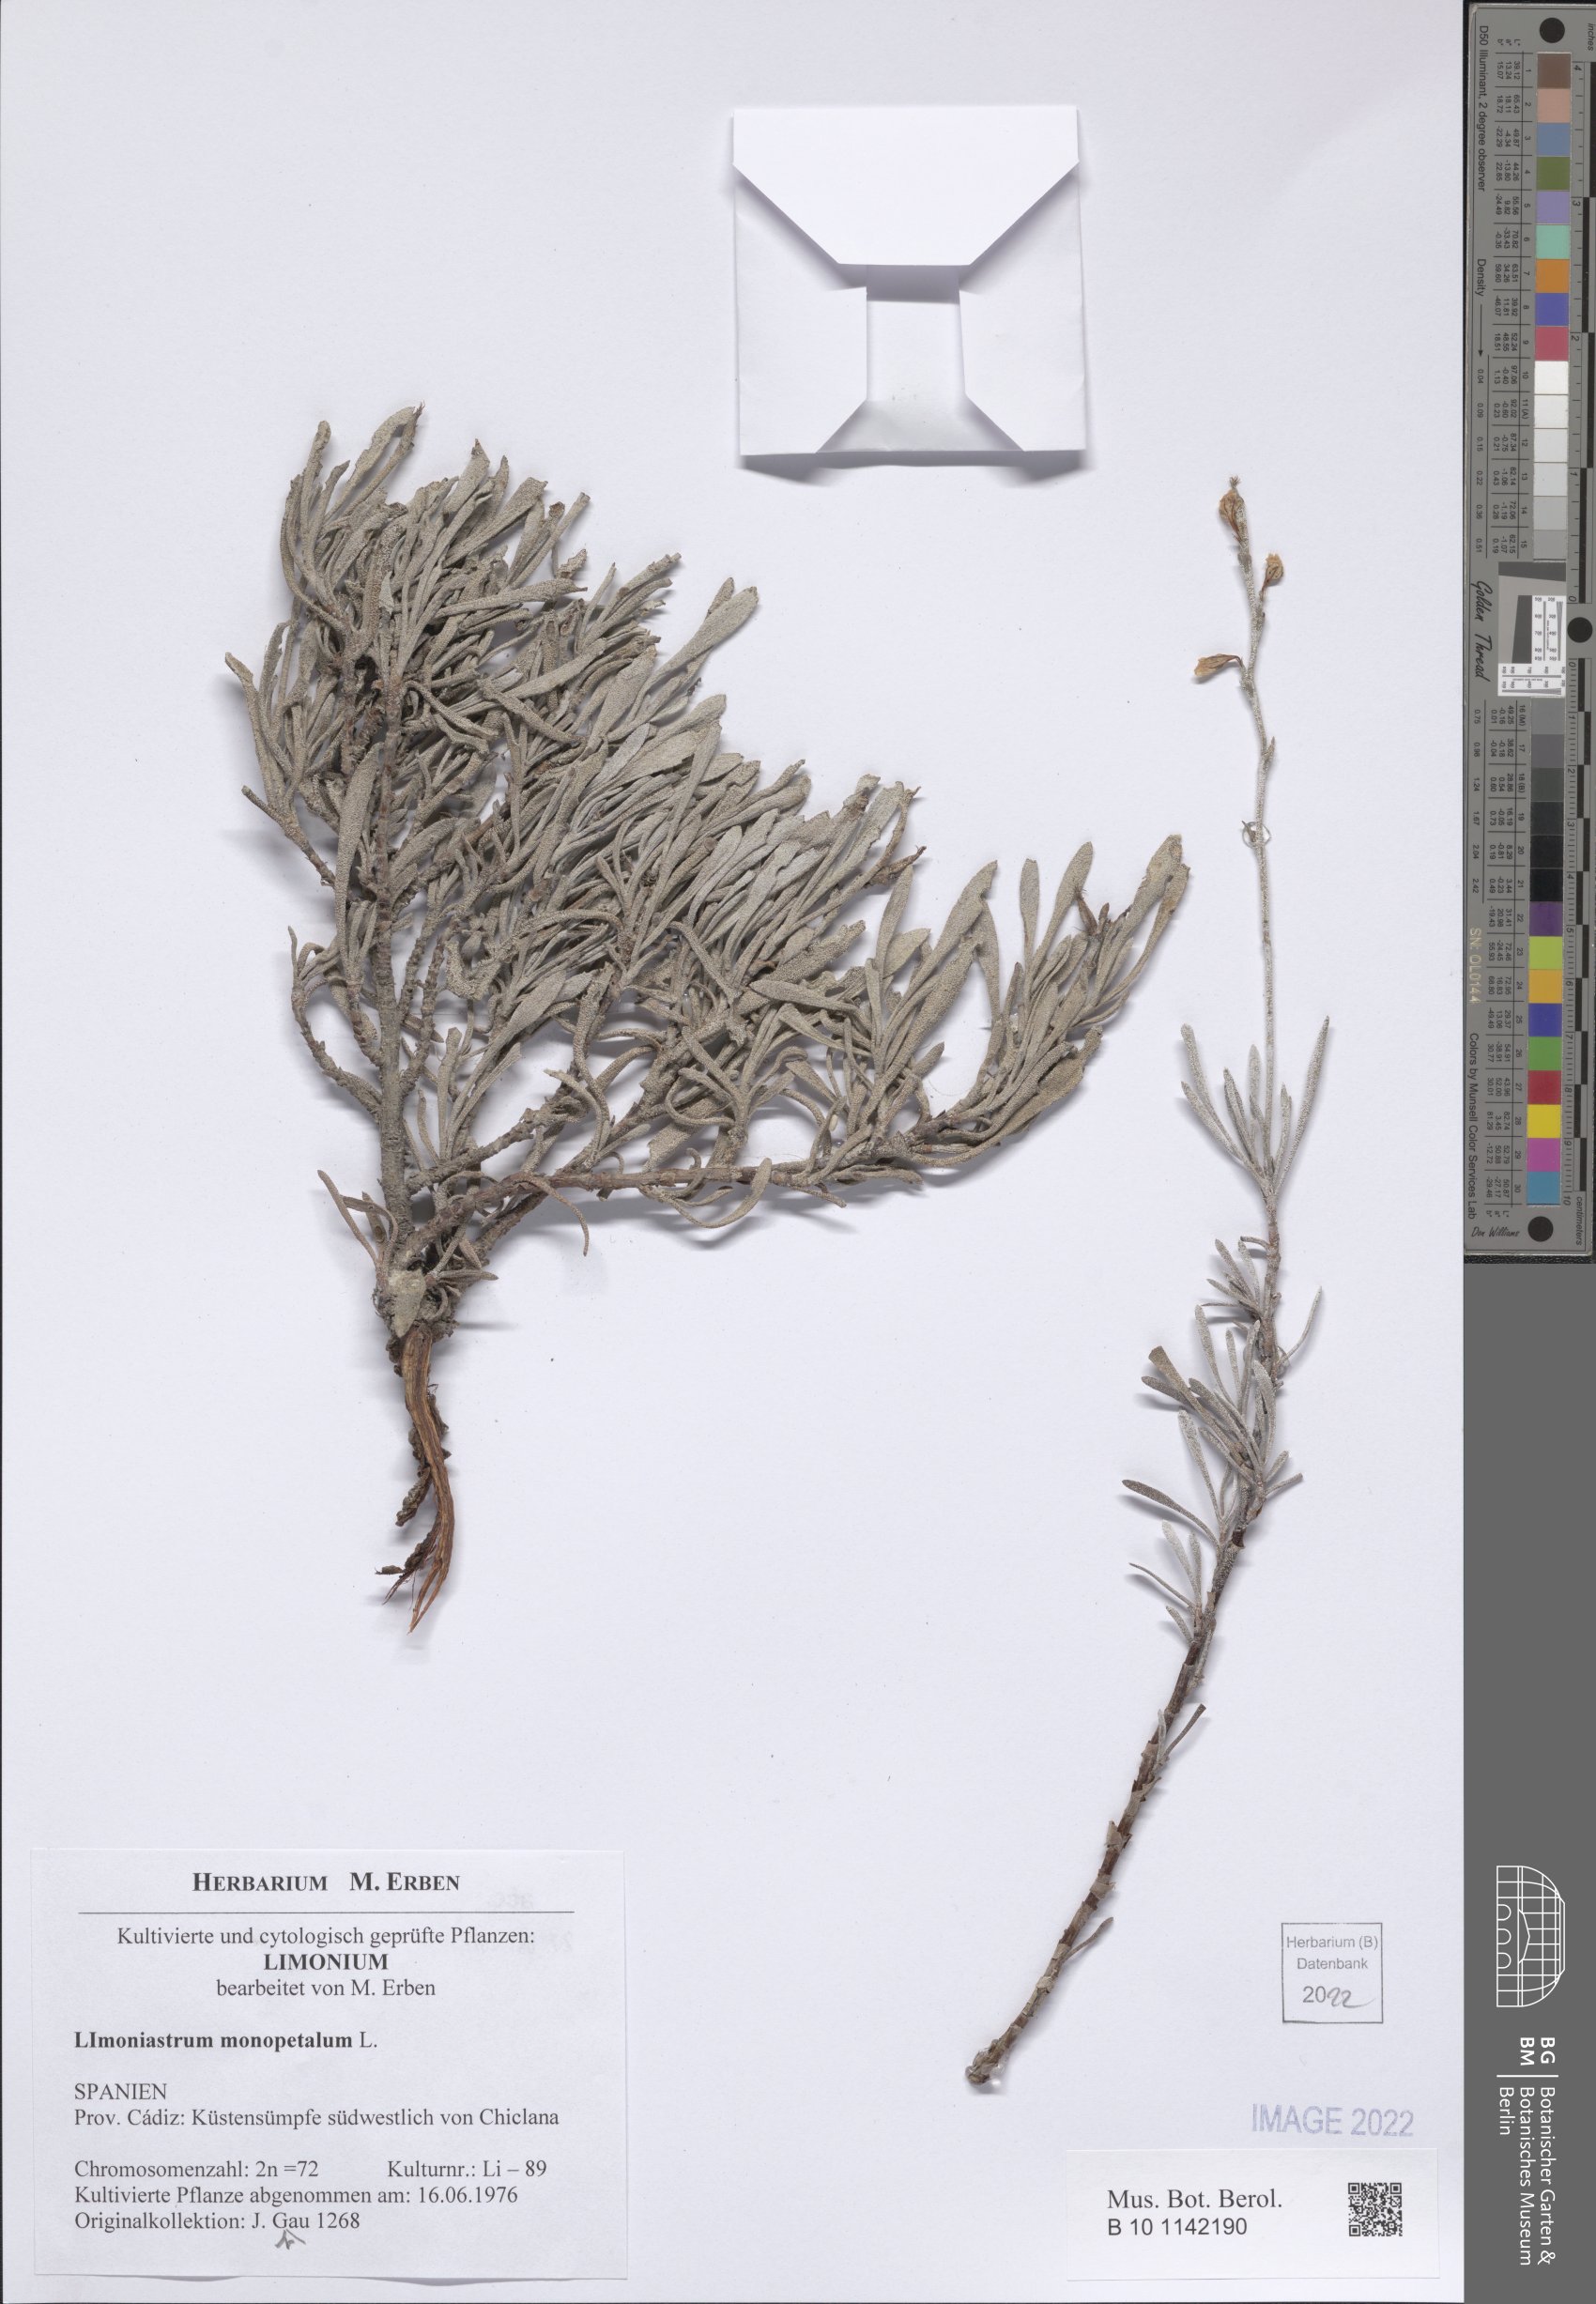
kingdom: Plantae
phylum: Tracheophyta
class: Magnoliopsida
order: Caryophyllales
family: Plumbaginaceae
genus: Limoniastrum
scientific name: Limoniastrum monopetalum
